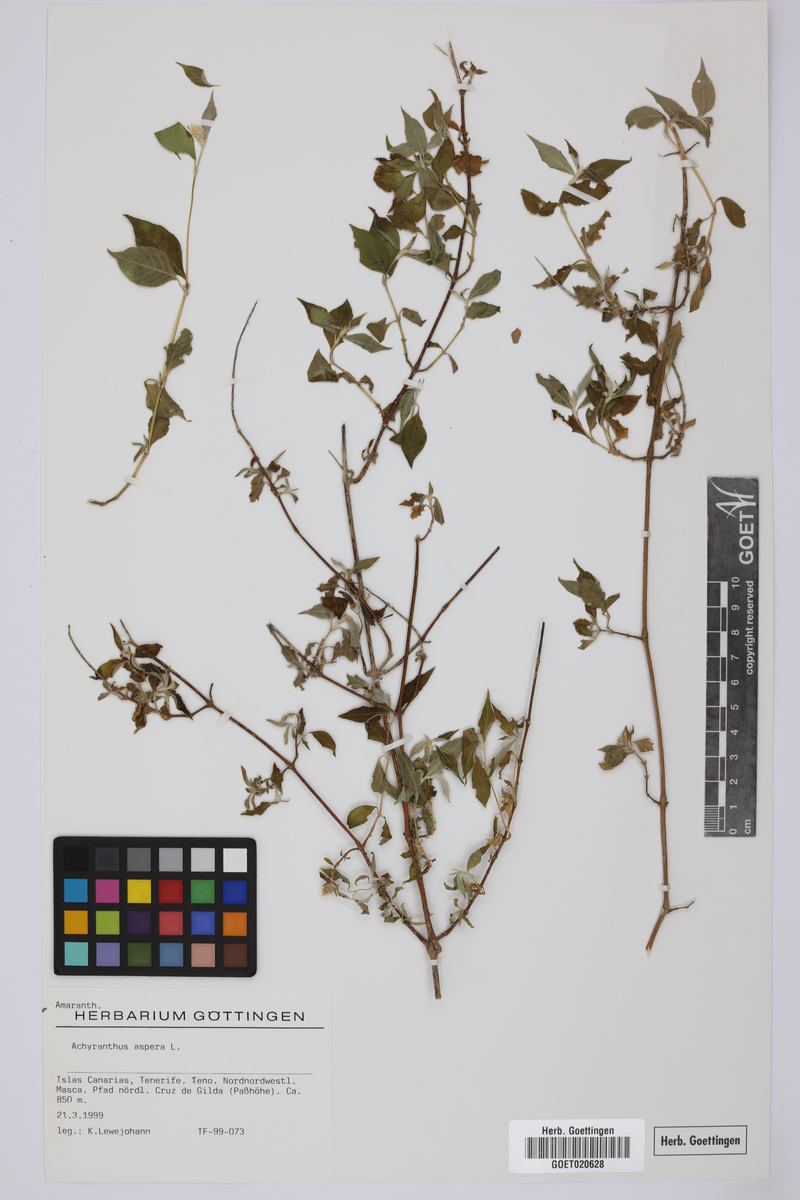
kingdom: Plantae
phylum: Tracheophyta
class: Magnoliopsida
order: Caryophyllales
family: Amaranthaceae
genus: Achyranthes
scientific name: Achyranthes aspera
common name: Devil's horsewhip
